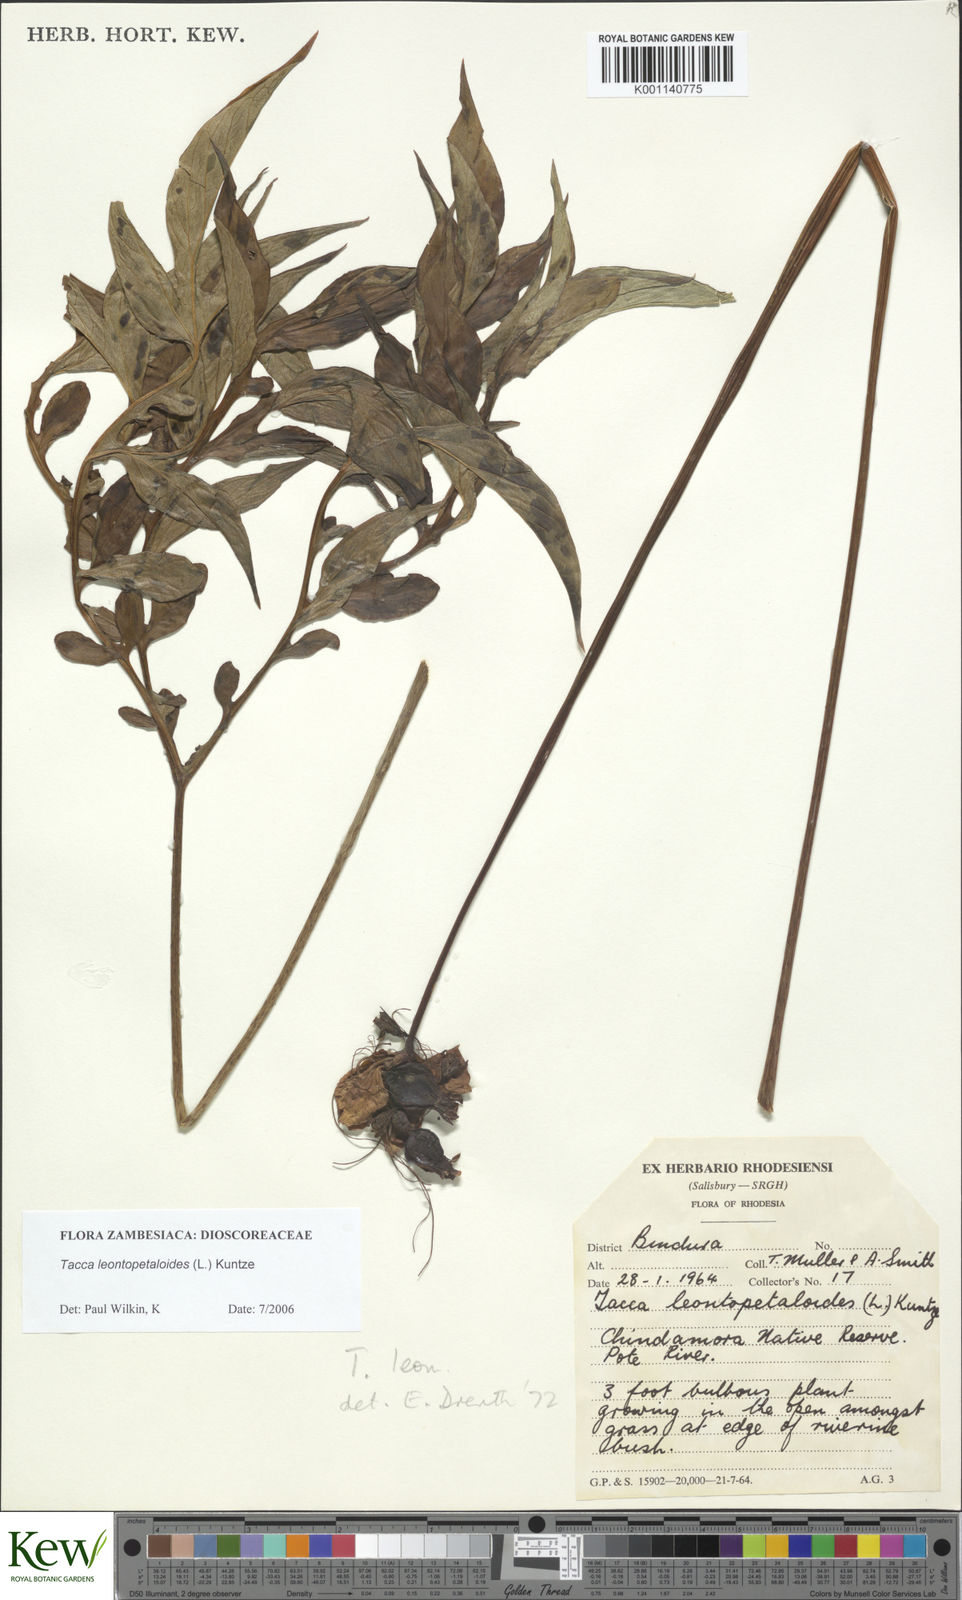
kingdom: Plantae
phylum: Tracheophyta
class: Liliopsida
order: Dioscoreales
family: Dioscoreaceae
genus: Tacca
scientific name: Tacca leontopetaloides
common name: Arrowroot
